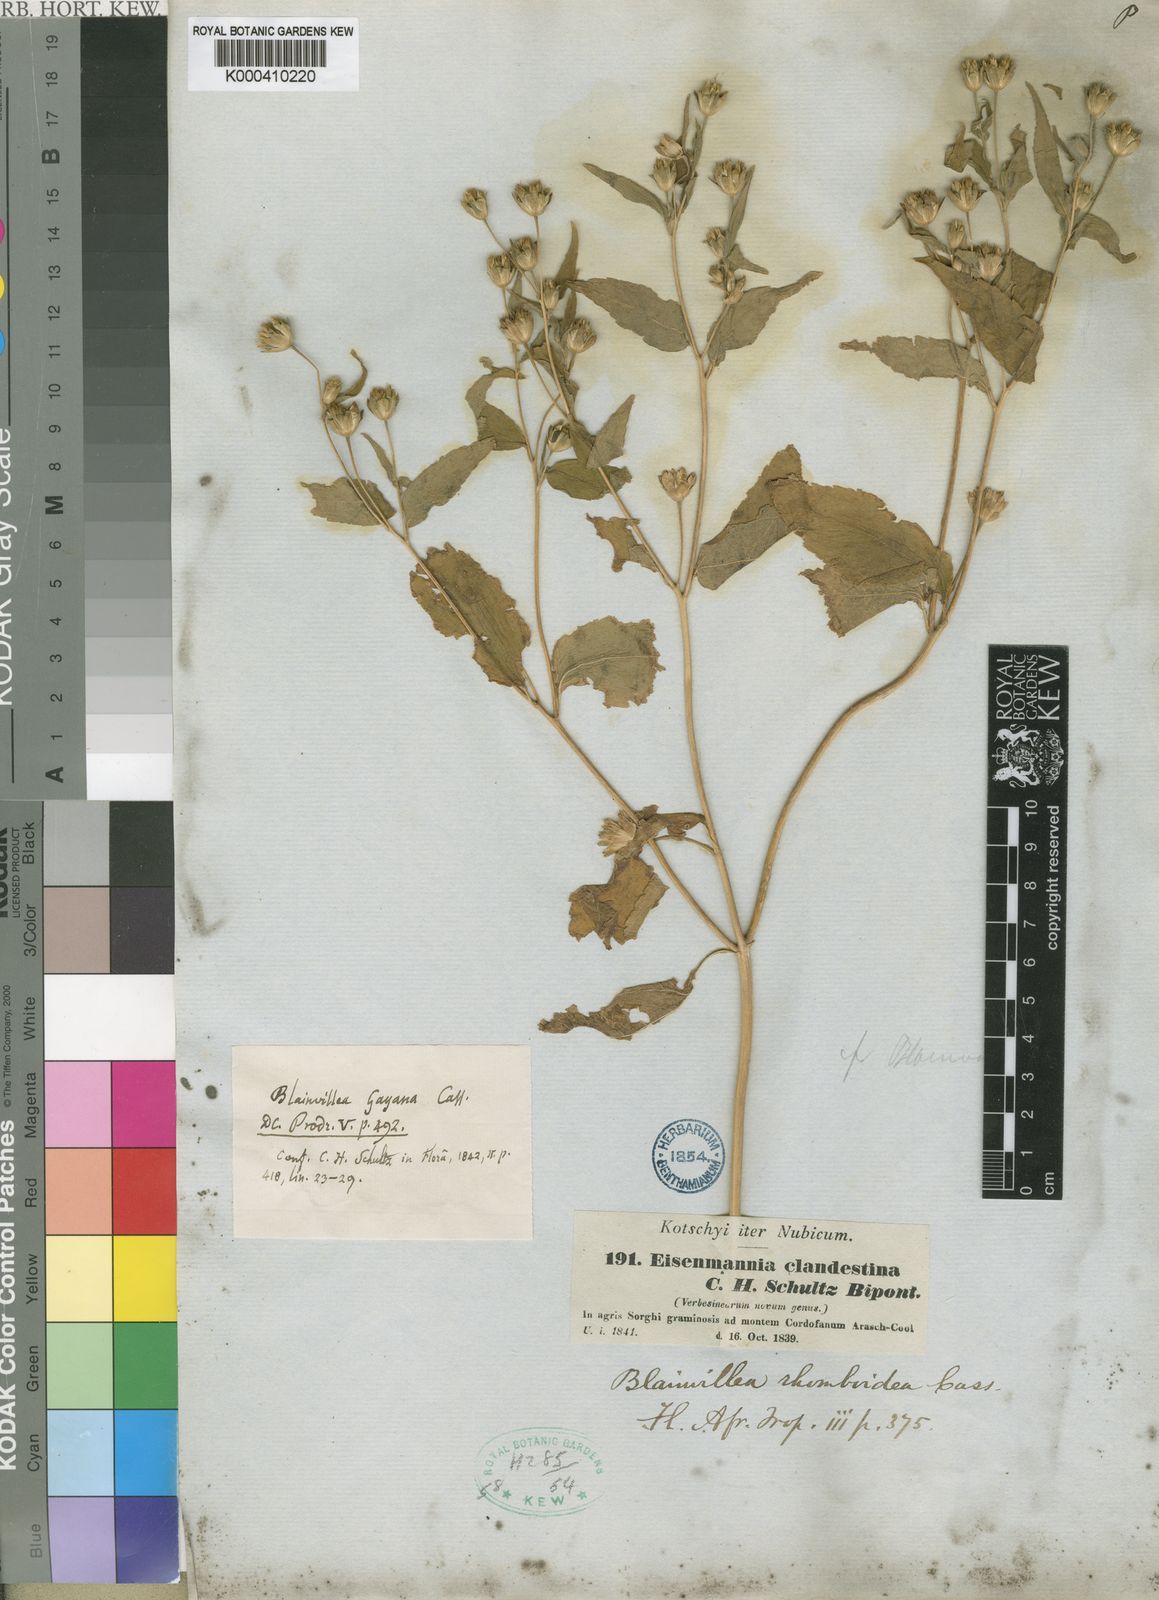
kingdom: Plantae
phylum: Tracheophyta
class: Magnoliopsida
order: Asterales
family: Asteraceae
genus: Blainvillea
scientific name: Blainvillea gayana
